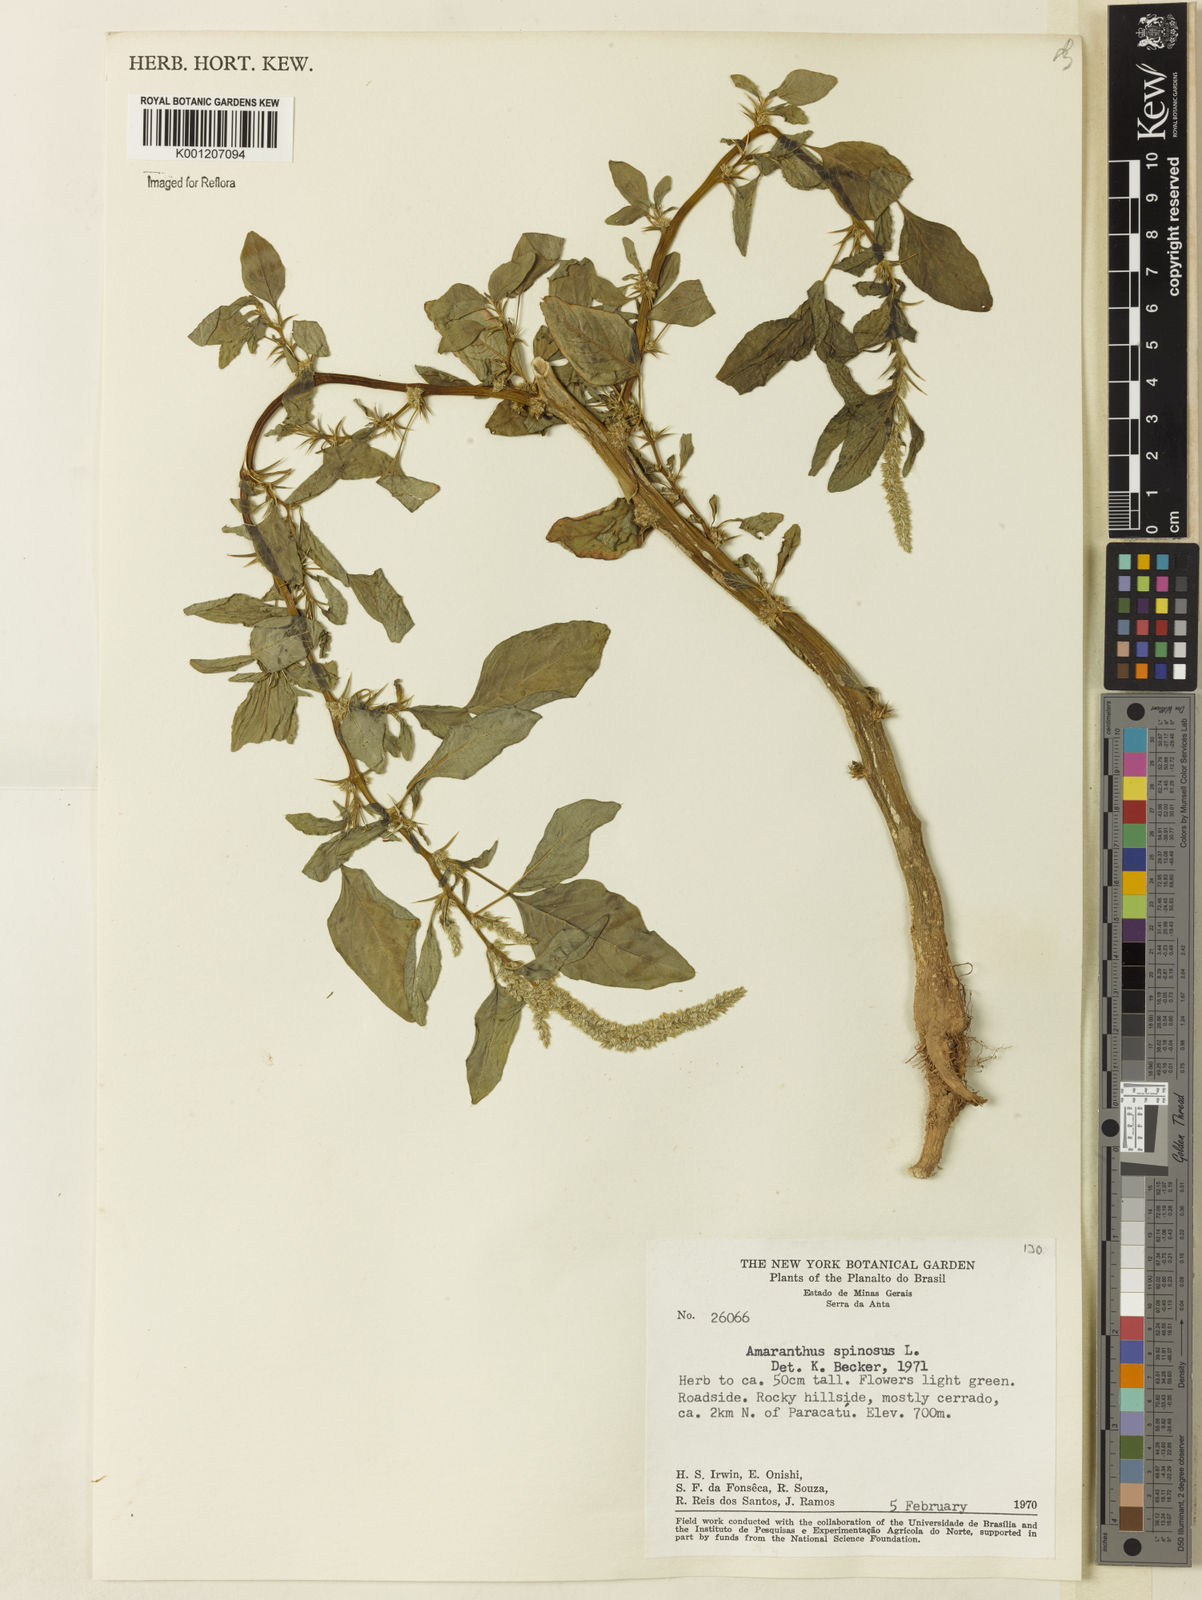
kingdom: Plantae
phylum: Tracheophyta
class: Magnoliopsida
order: Caryophyllales
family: Amaranthaceae
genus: Amaranthus
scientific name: Amaranthus spinosus
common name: Spiny amaranth
